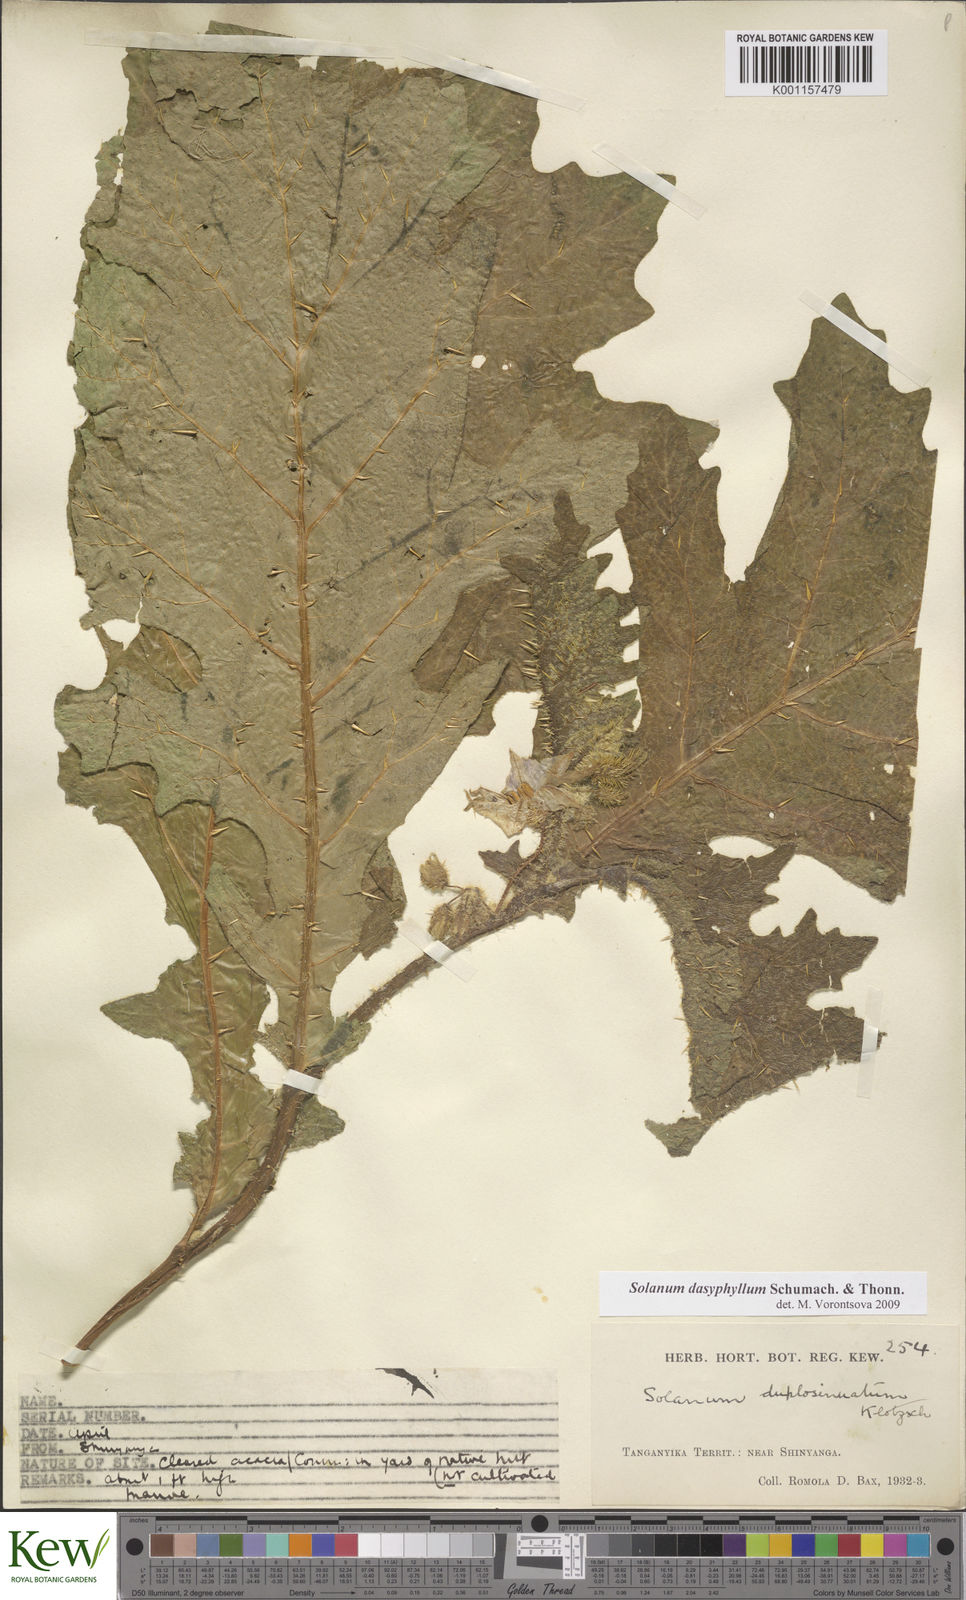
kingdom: Plantae
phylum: Tracheophyta
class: Magnoliopsida
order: Solanales
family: Solanaceae
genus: Solanum
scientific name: Solanum dasyphyllum
